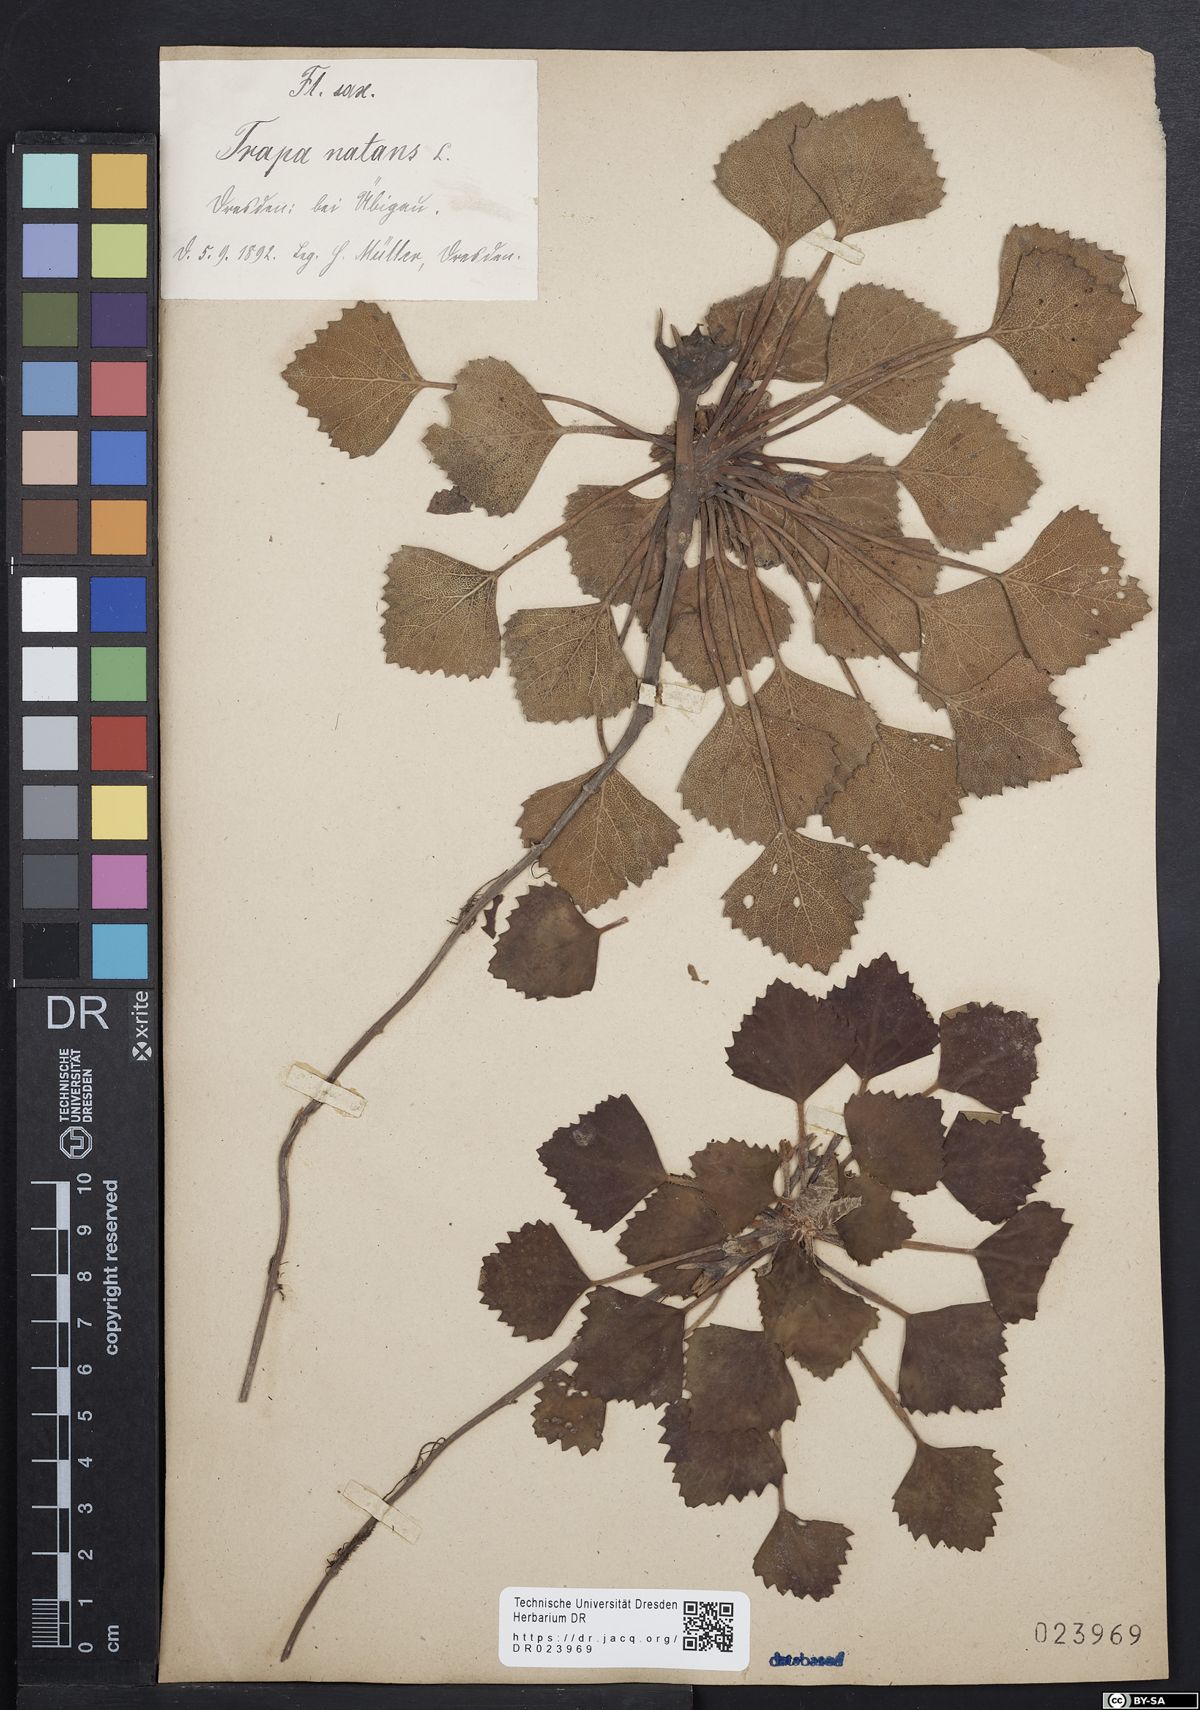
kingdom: Plantae
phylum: Tracheophyta
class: Magnoliopsida
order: Myrtales
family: Lythraceae
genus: Trapa
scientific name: Trapa natans
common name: Water chestnut
